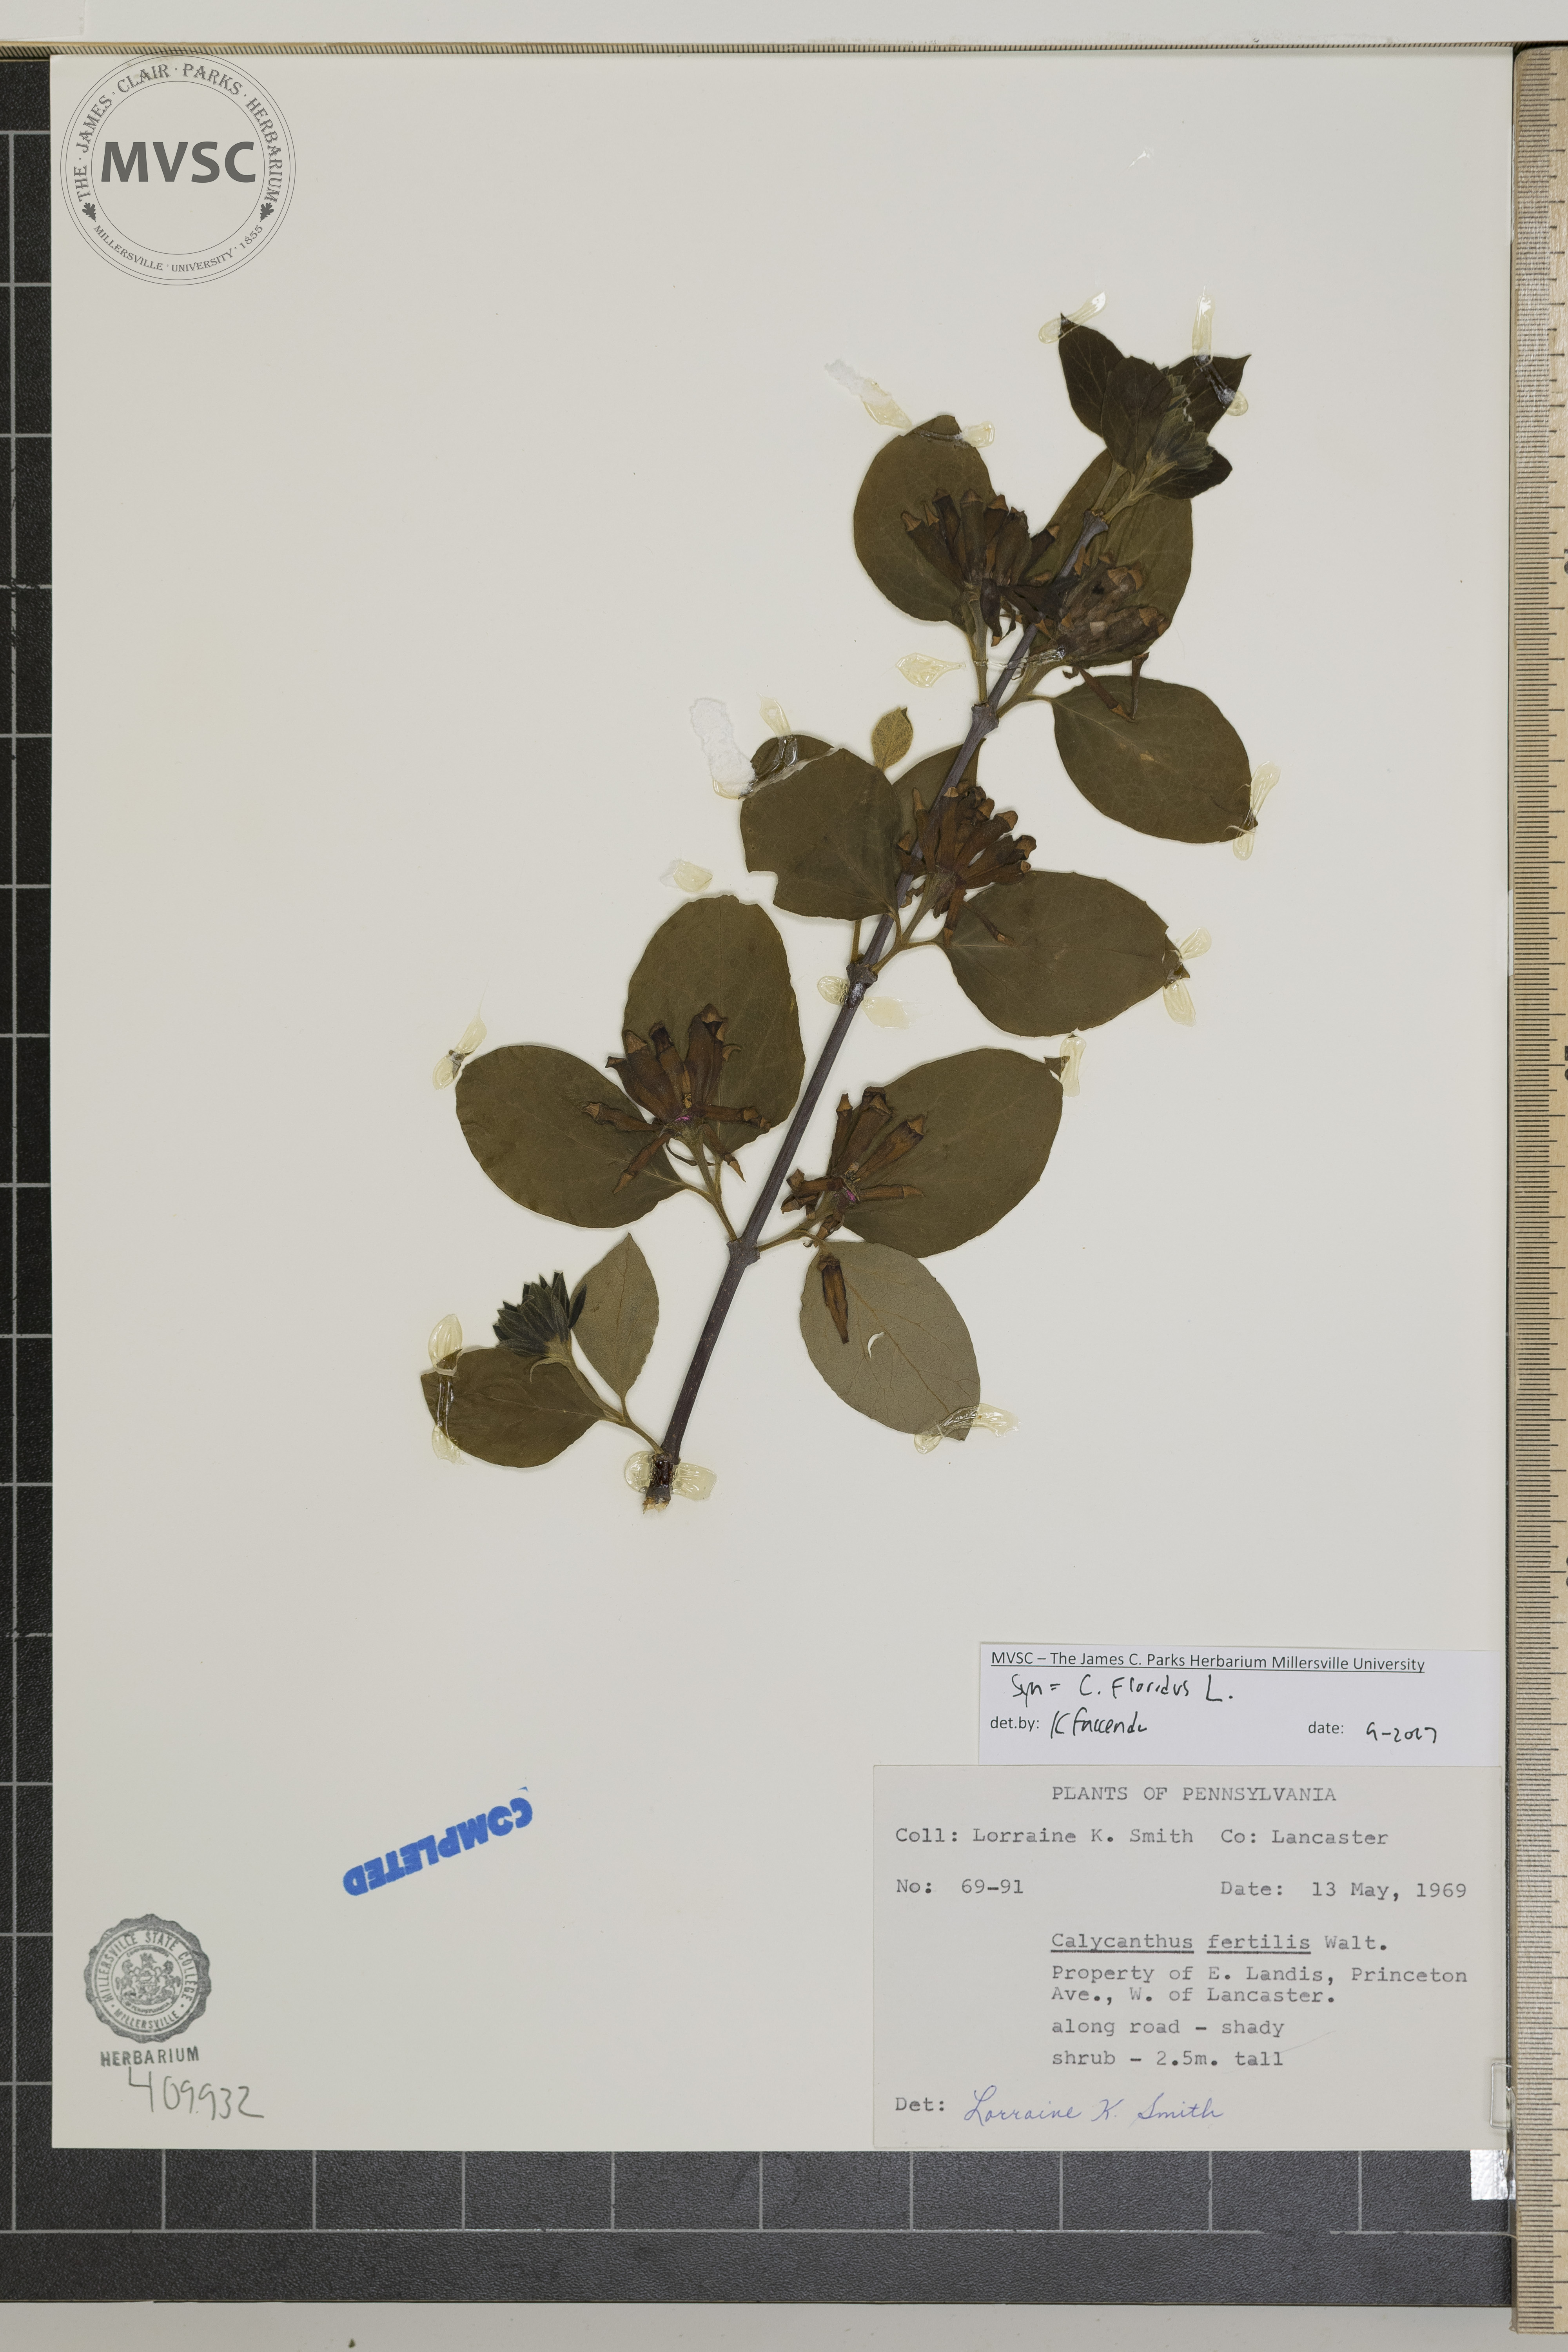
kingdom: Plantae
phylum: Tracheophyta
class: Magnoliopsida
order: Laurales
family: Calycanthaceae
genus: Calycanthus
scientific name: Calycanthus floridus
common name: Carolina-allspice
